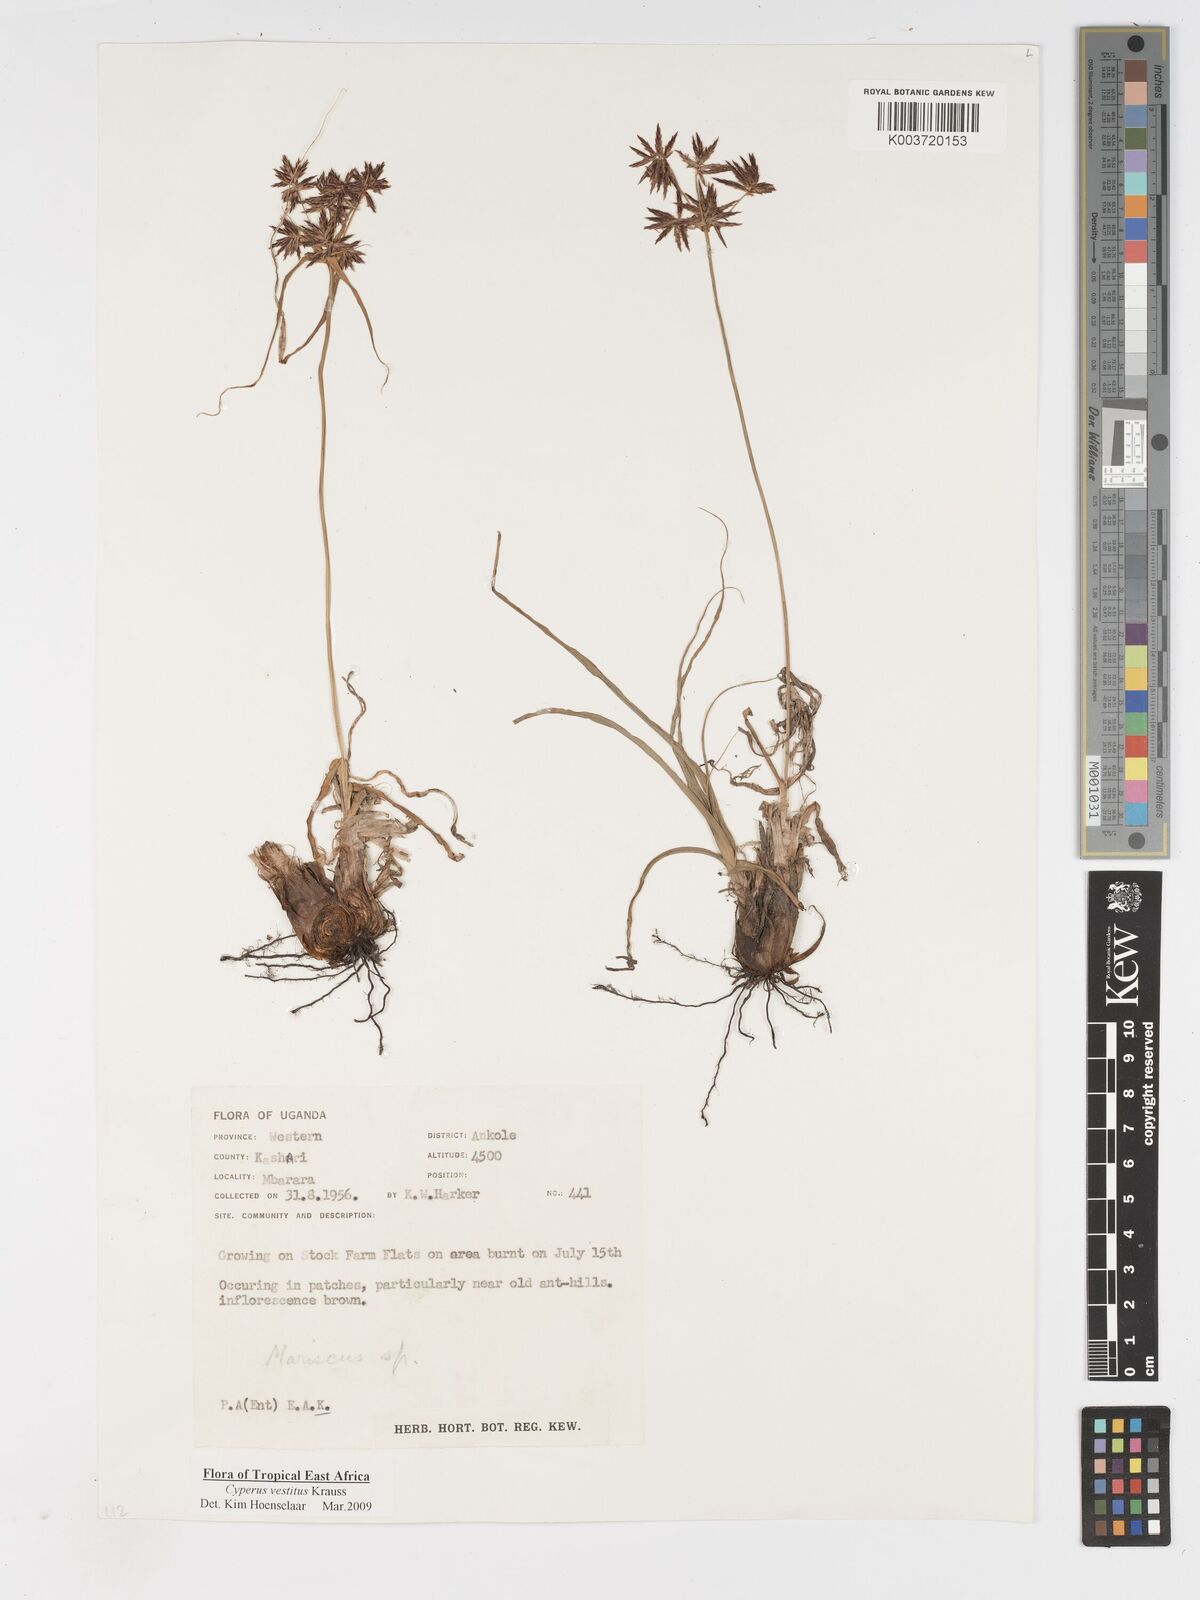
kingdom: Plantae
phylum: Tracheophyta
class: Liliopsida
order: Poales
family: Cyperaceae
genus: Cyperus
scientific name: Cyperus vestitus
